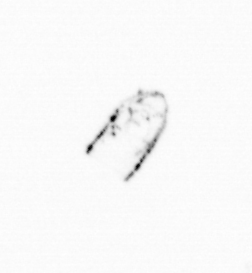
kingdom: Chromista
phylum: Ochrophyta
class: Bacillariophyceae
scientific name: Bacillariophyceae
